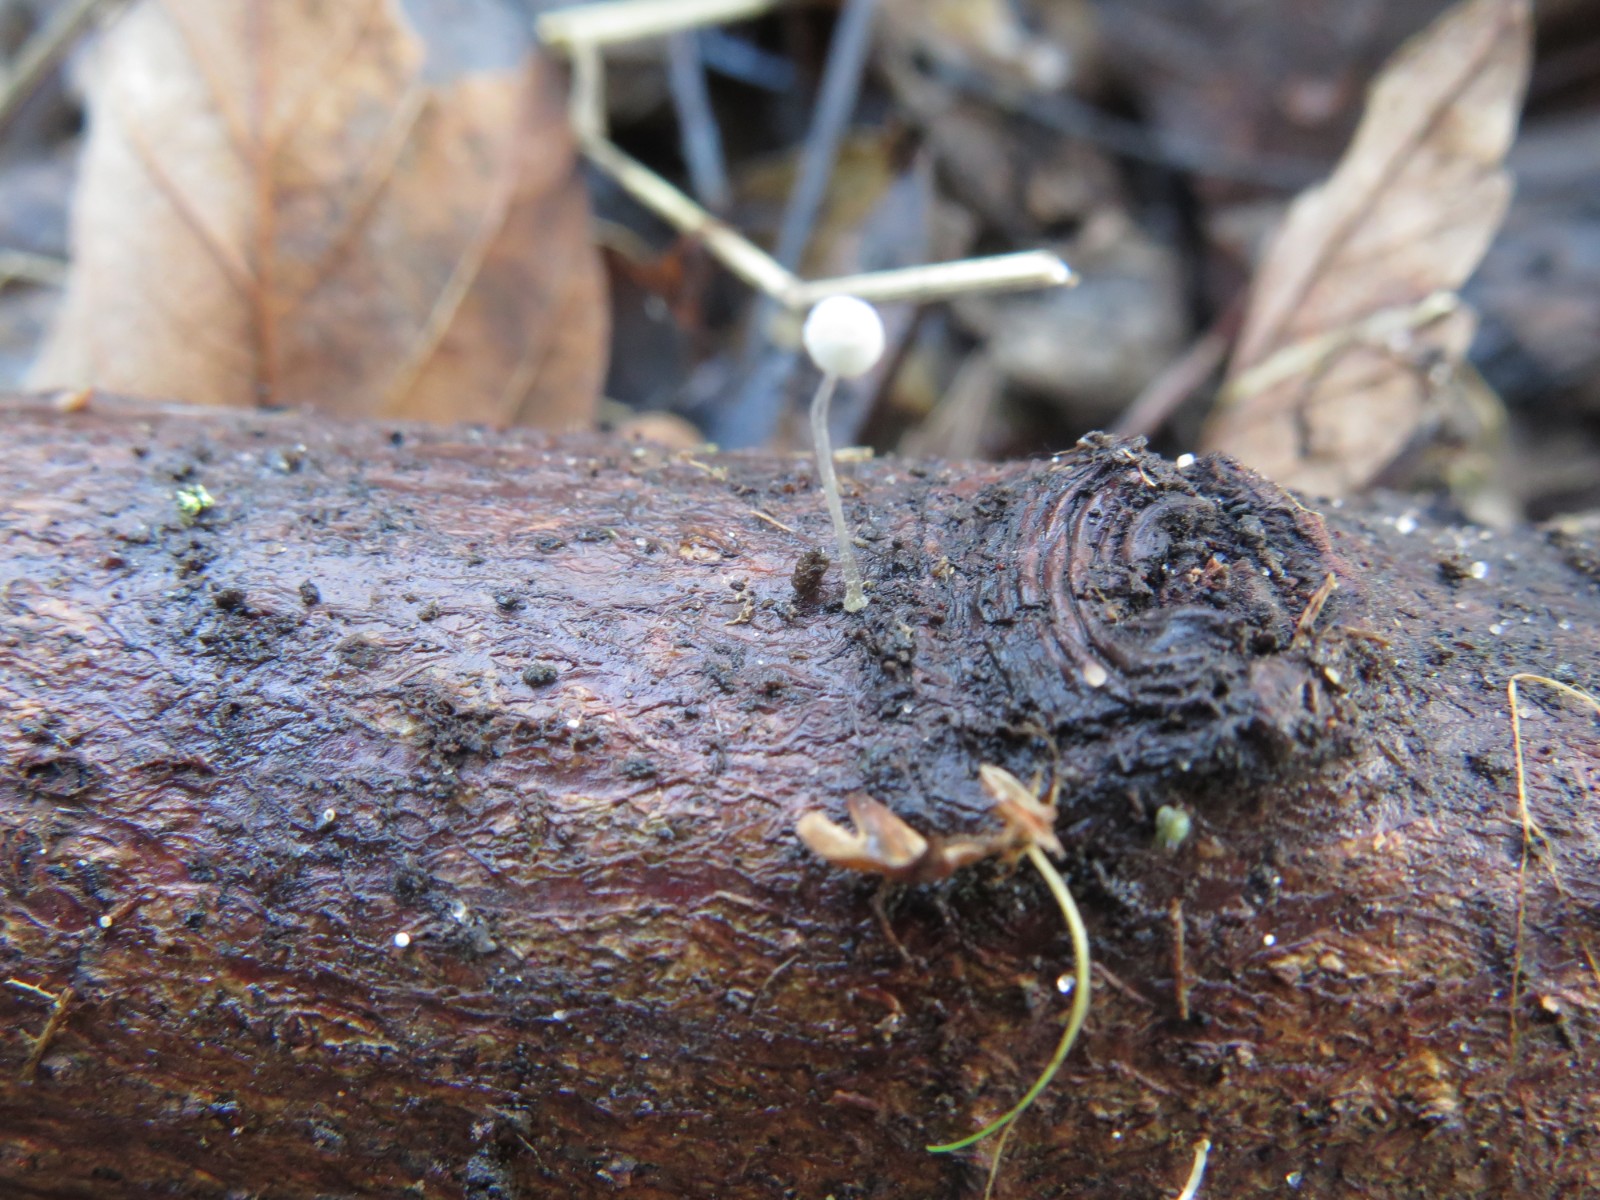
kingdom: Fungi
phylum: Basidiomycota
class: Agaricomycetes
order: Agaricales
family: Porotheleaceae
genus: Phloeomana
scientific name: Phloeomana speirea
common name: kvist-huesvamp
